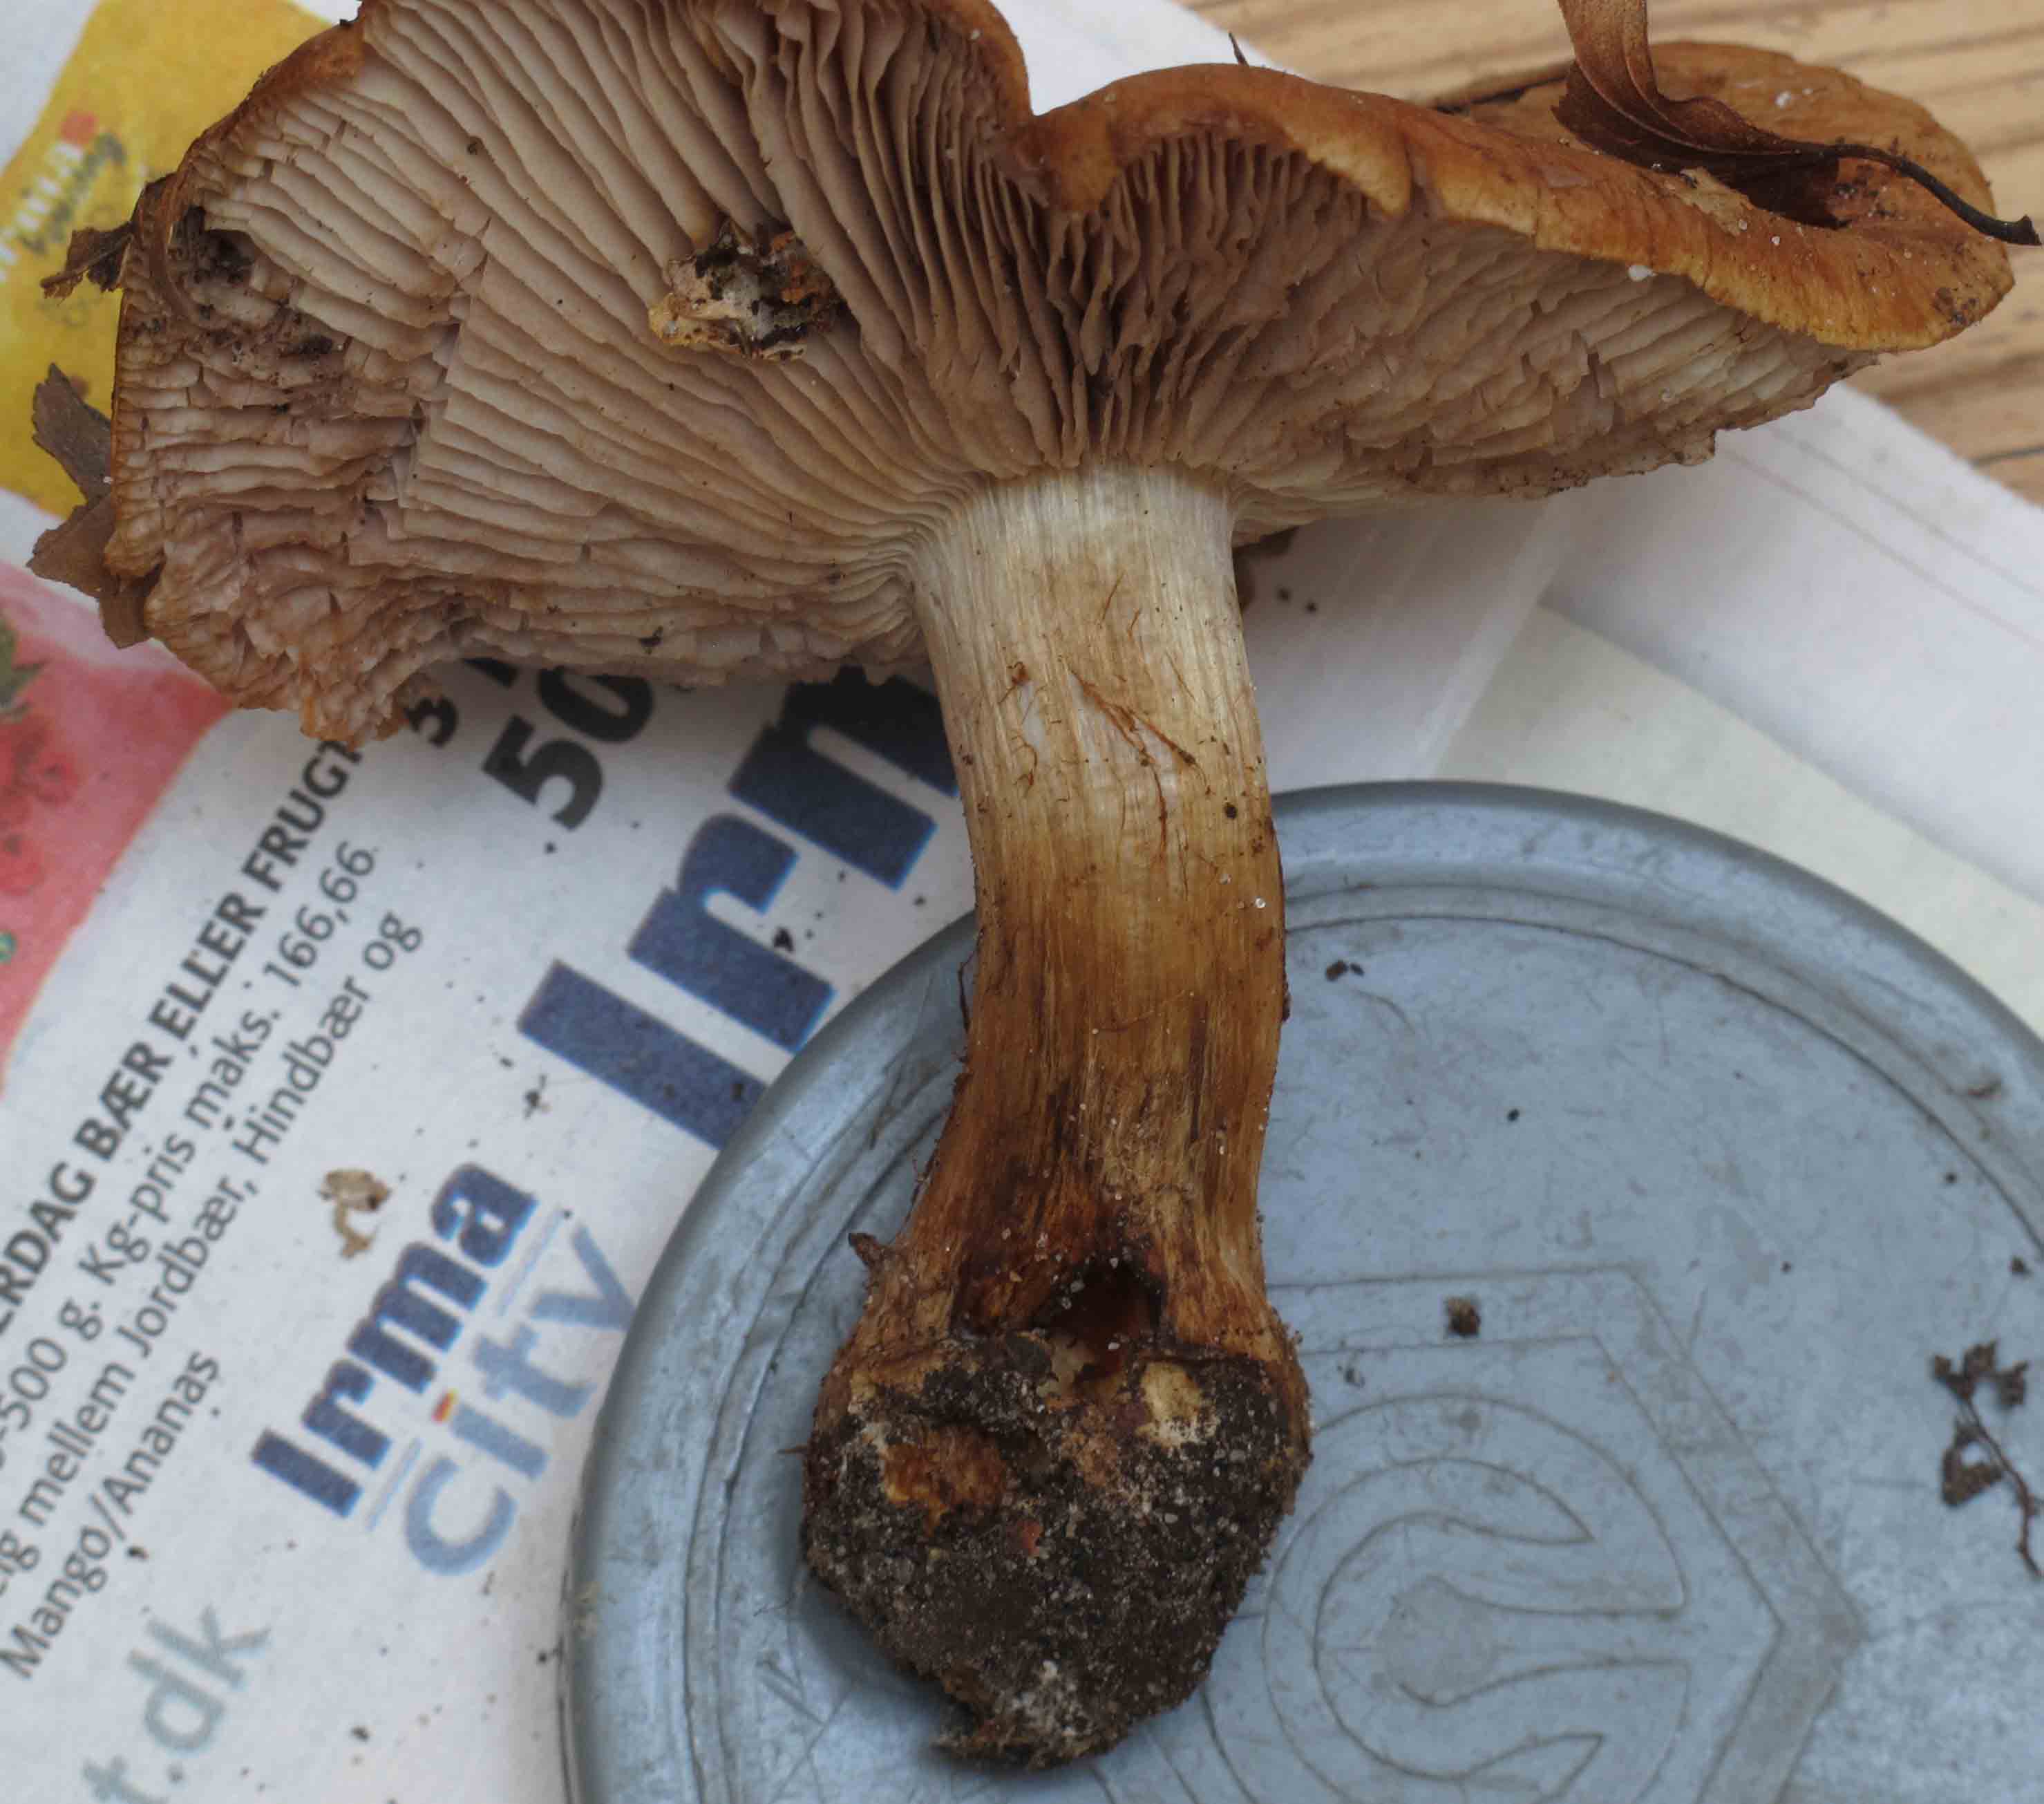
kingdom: Fungi
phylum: Basidiomycota
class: Agaricomycetes
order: Agaricales
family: Cortinariaceae
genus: Phlegmacium
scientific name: Phlegmacium tirolianum
